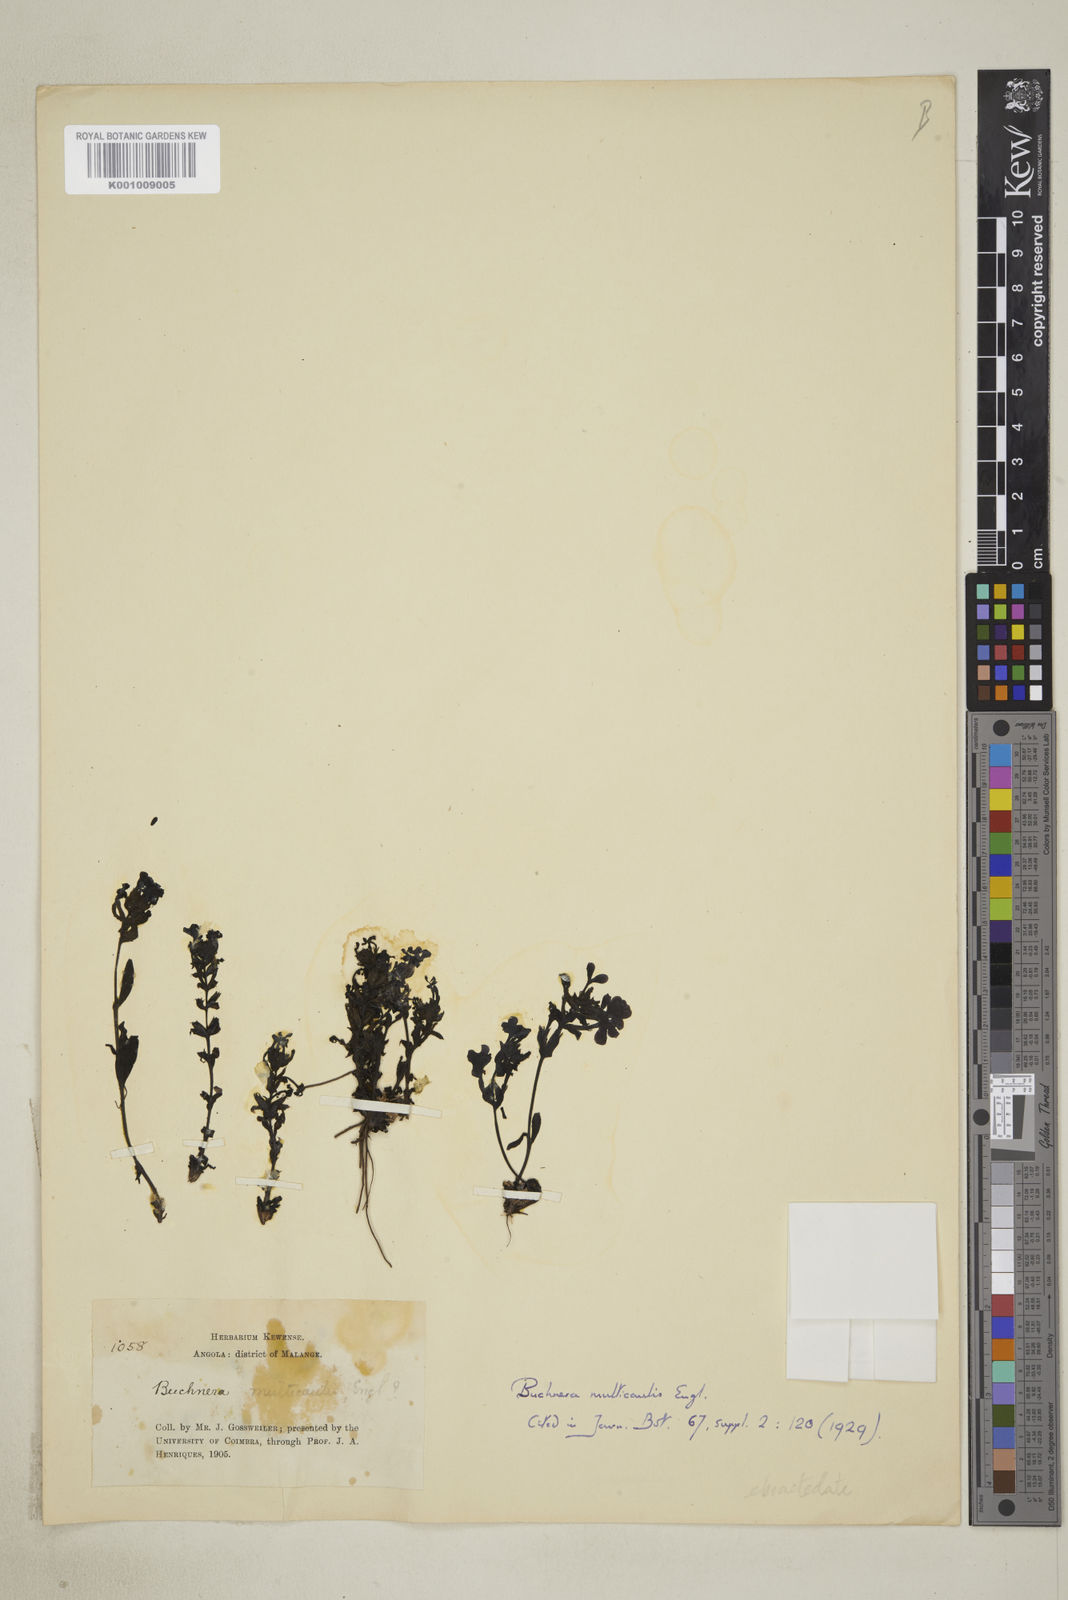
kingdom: Plantae
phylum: Tracheophyta
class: Magnoliopsida
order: Lamiales
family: Orobanchaceae
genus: Buchnera
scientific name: Buchnera multicaulis
